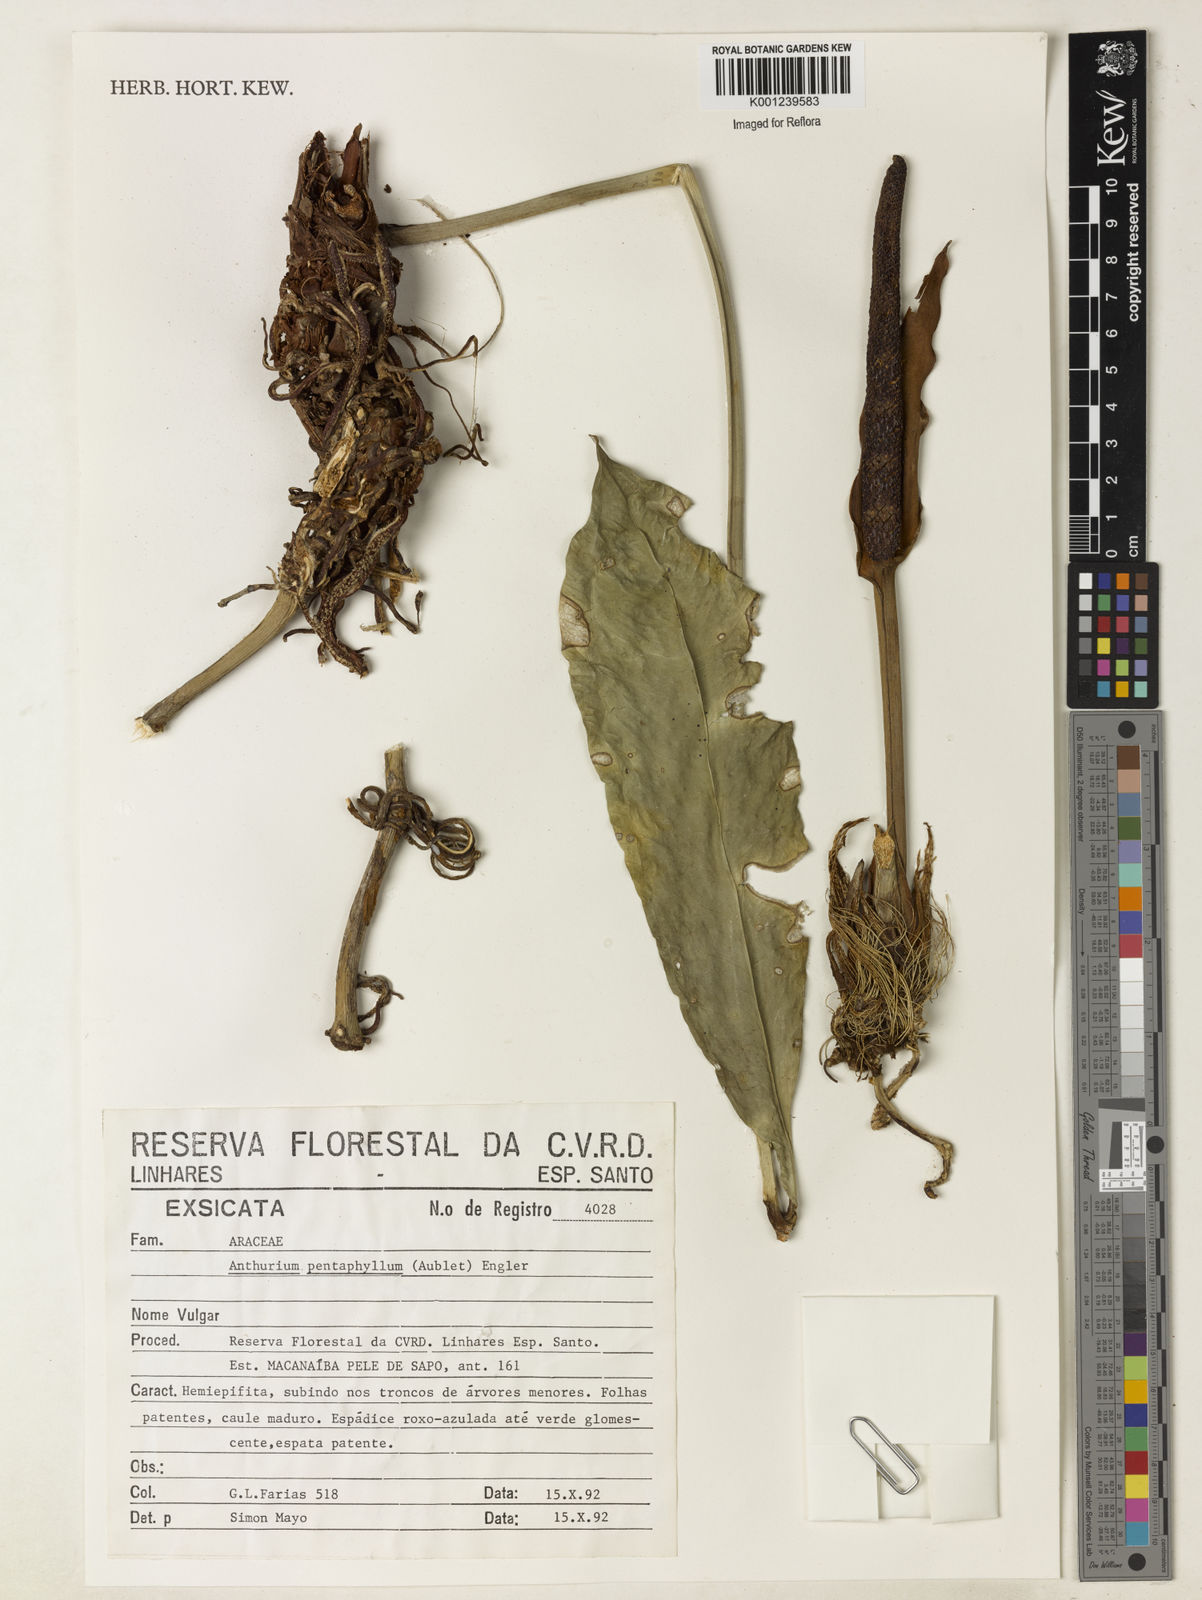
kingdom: Plantae
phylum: Tracheophyta
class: Liliopsida
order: Alismatales
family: Araceae
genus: Anthurium
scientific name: Anthurium pentaphyllum
